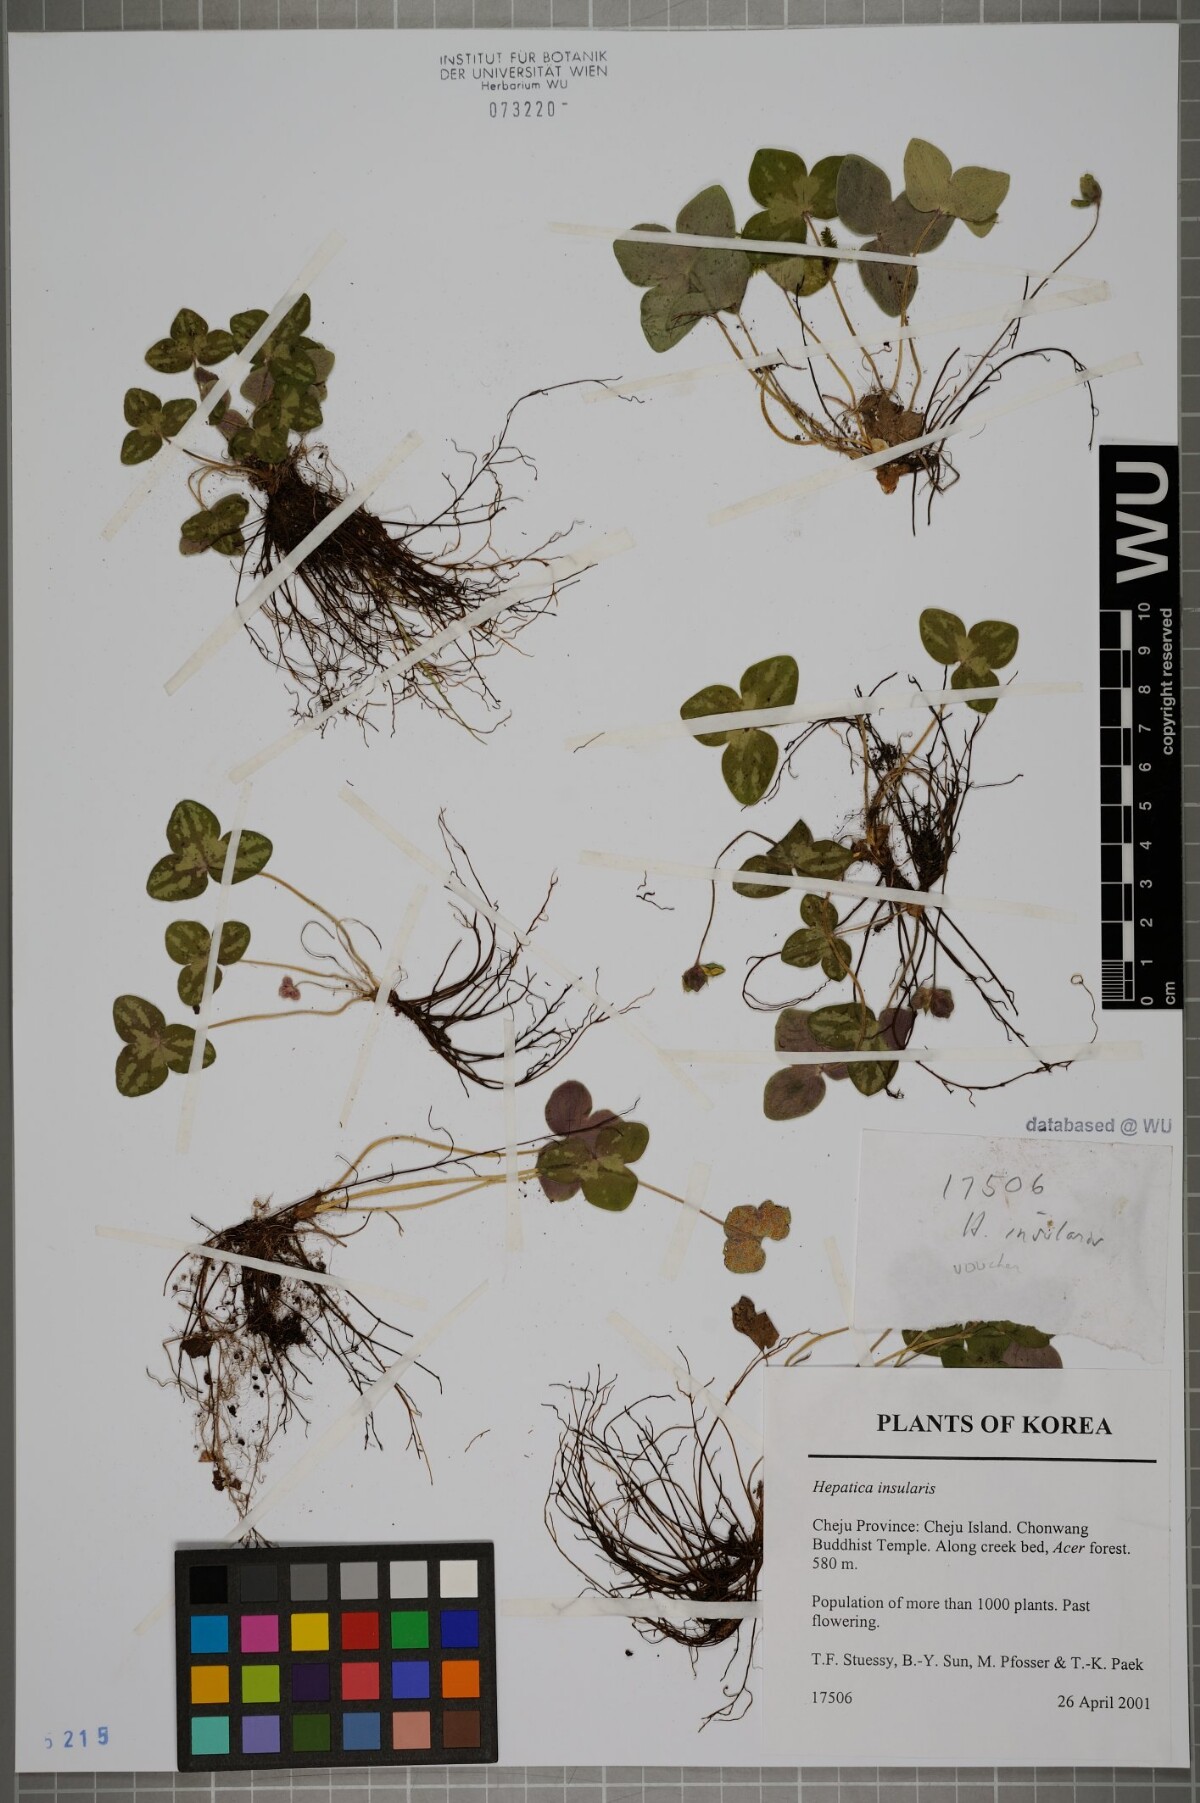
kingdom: Plantae
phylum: Tracheophyta
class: Magnoliopsida
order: Ranunculales
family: Ranunculaceae
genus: Hepatica
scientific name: Hepatica insularis
